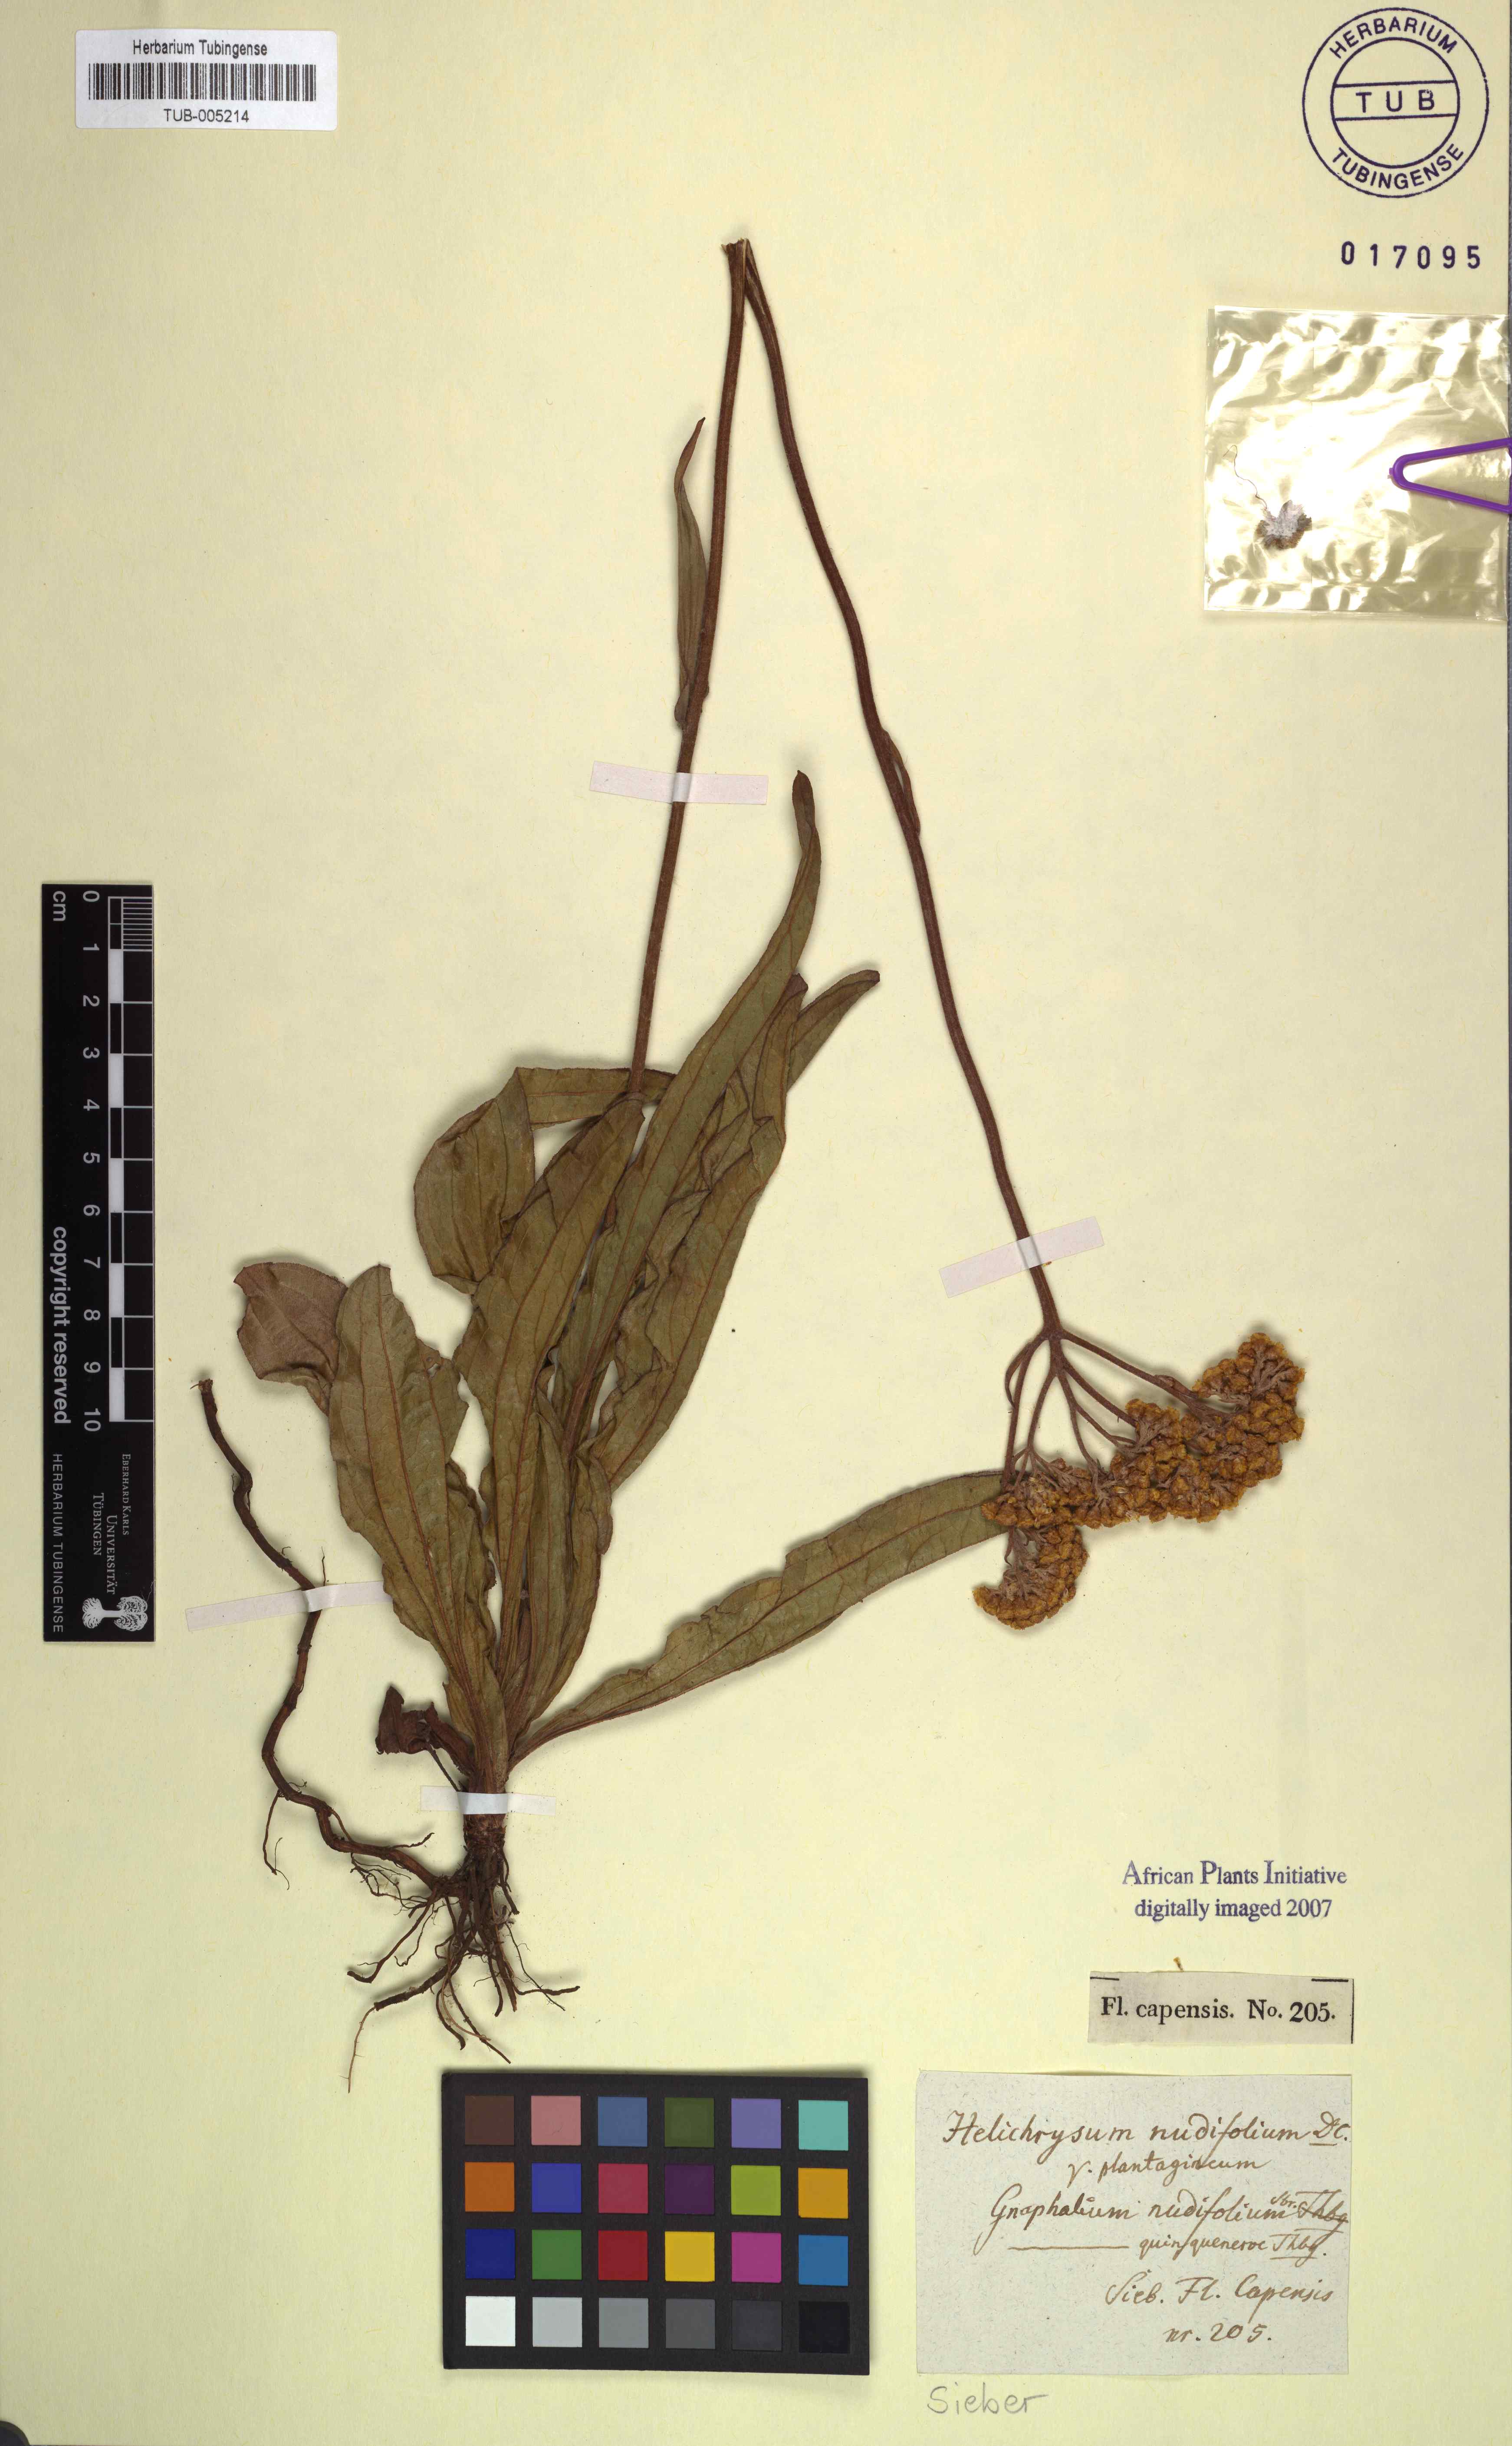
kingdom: Plantae
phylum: Tracheophyta
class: Magnoliopsida
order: Asterales
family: Asteraceae
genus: Helichrysum
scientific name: Helichrysum nudifolium
